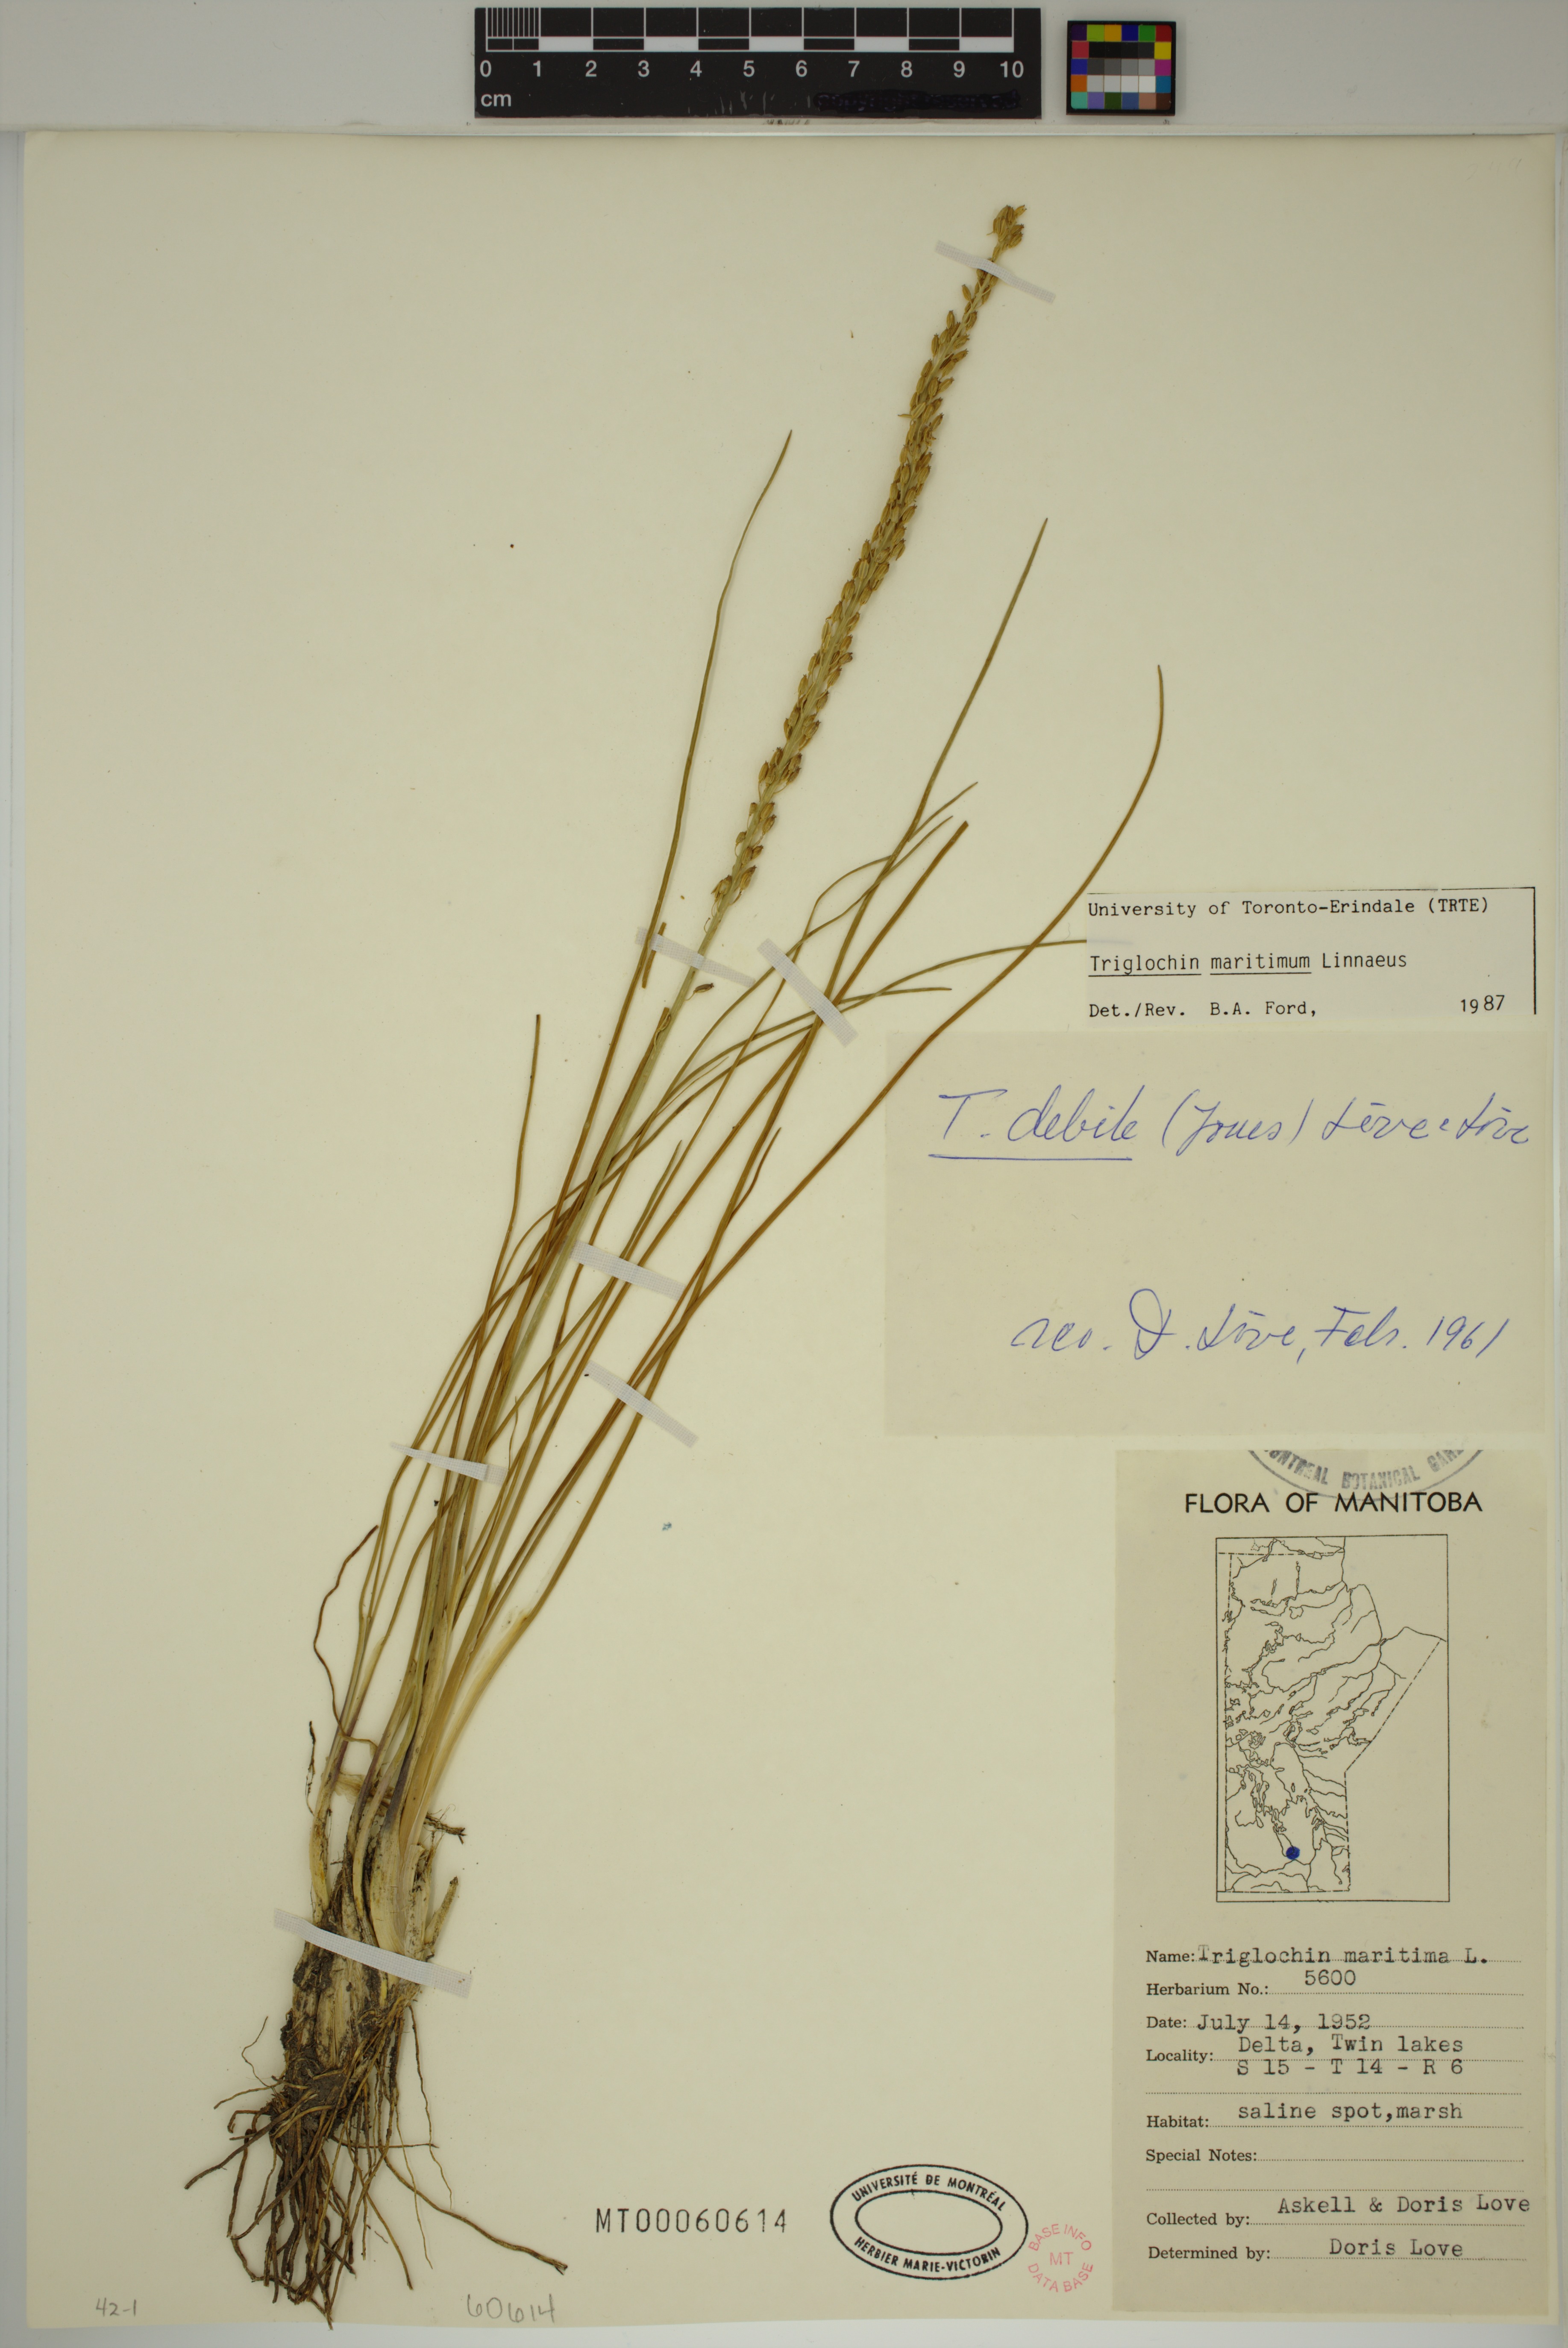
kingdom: Plantae
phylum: Tracheophyta
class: Liliopsida
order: Alismatales
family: Juncaginaceae
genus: Triglochin
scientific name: Triglochin maritima
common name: Sea arrowgrass
